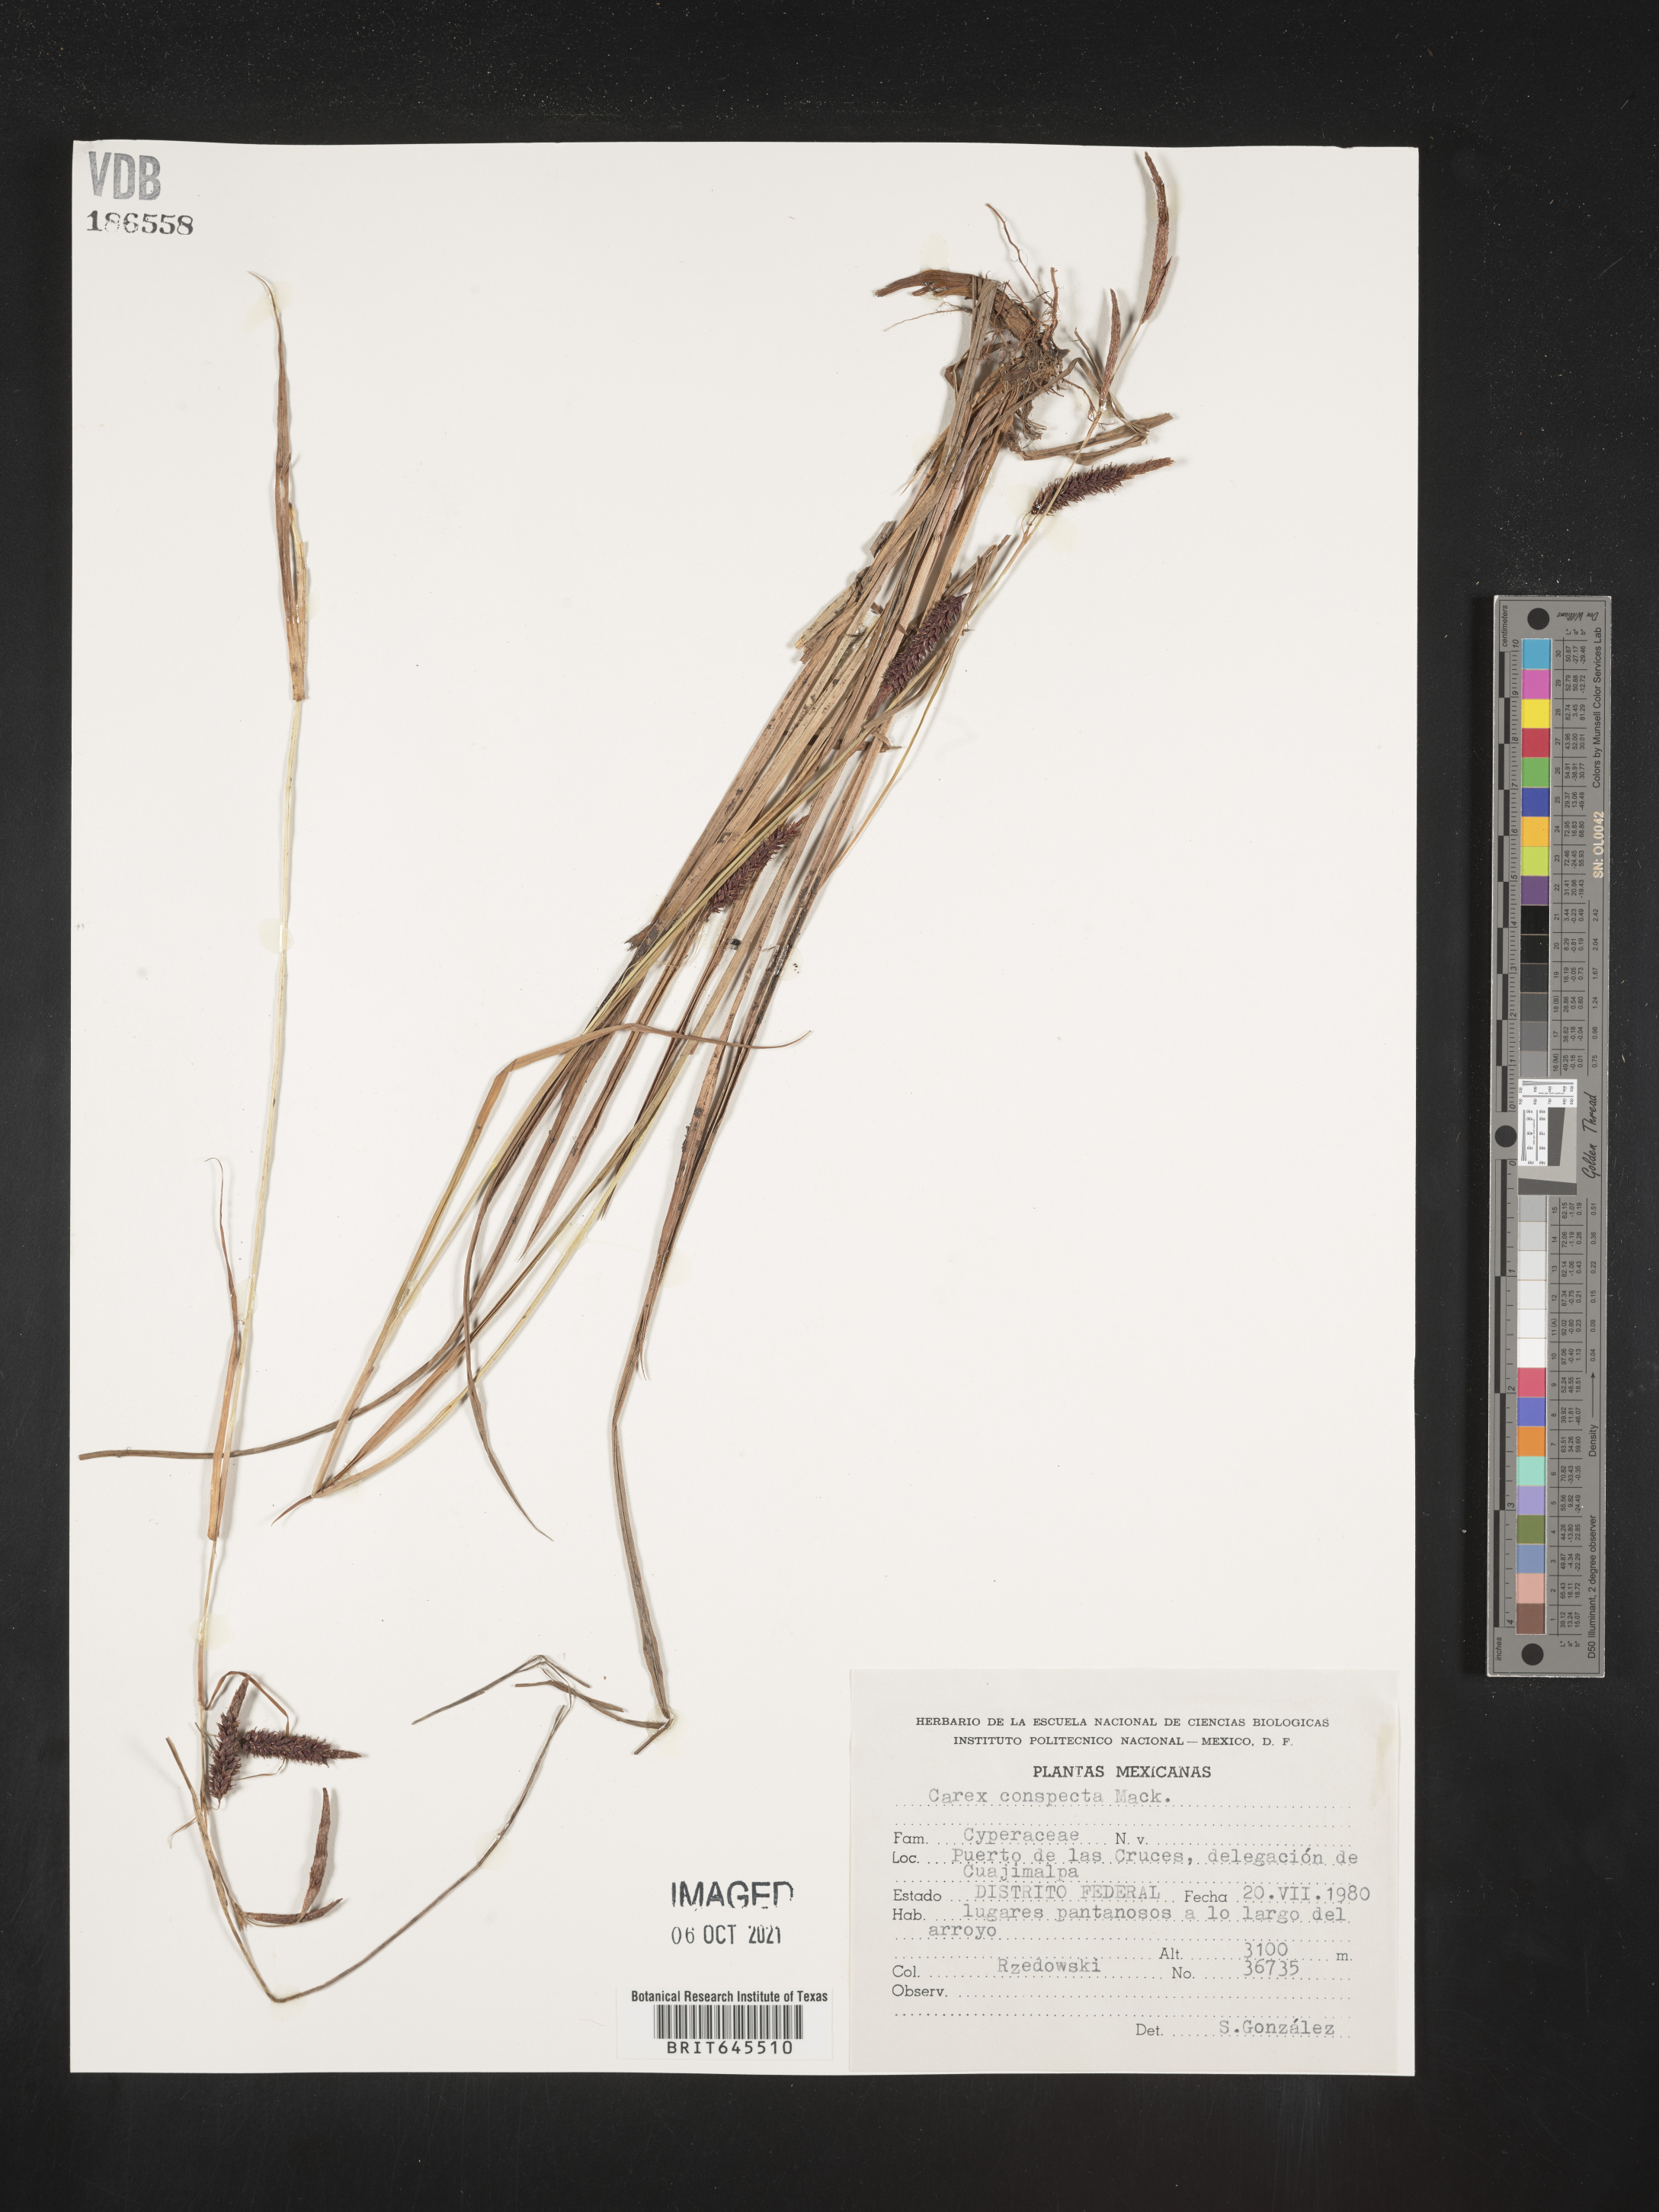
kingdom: Plantae
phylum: Tracheophyta
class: Liliopsida
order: Poales
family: Cyperaceae
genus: Carex
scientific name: Carex
